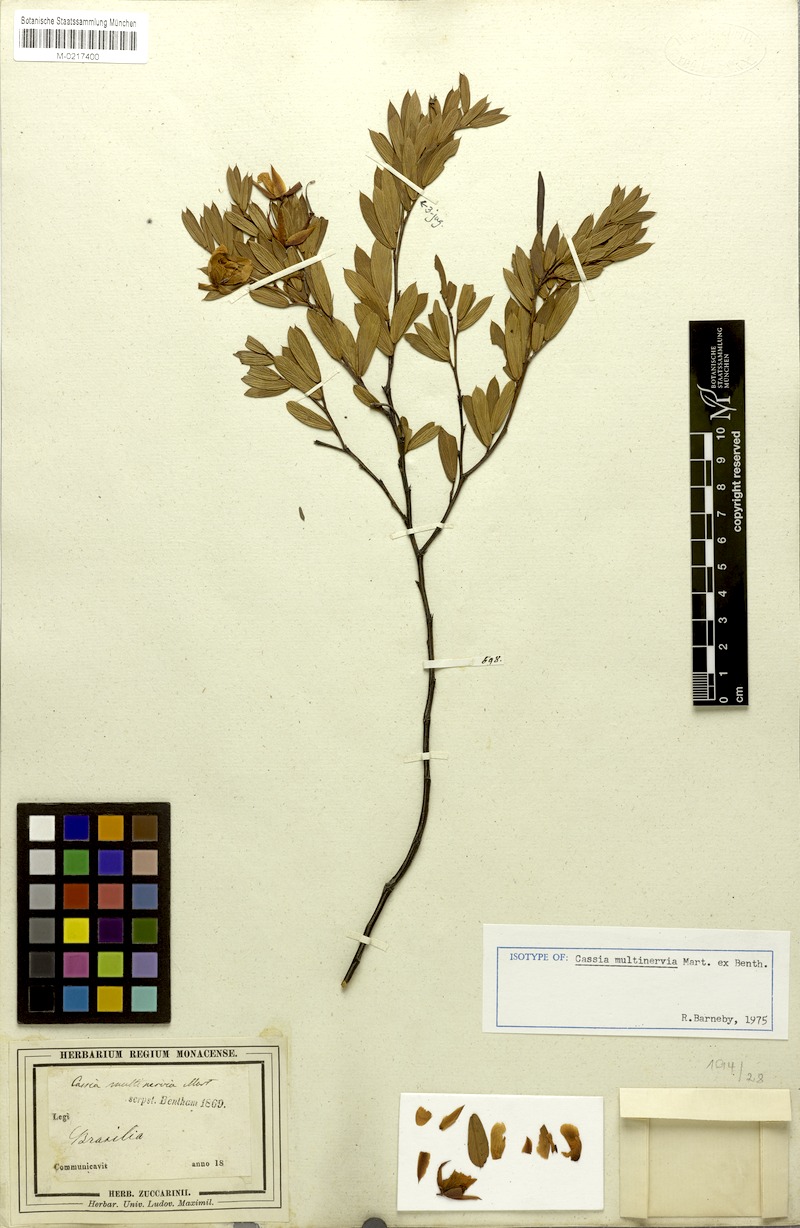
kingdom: Plantae
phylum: Tracheophyta
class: Magnoliopsida
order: Fabales
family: Fabaceae
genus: Chamaecrista
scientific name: Chamaecrista multinervia
